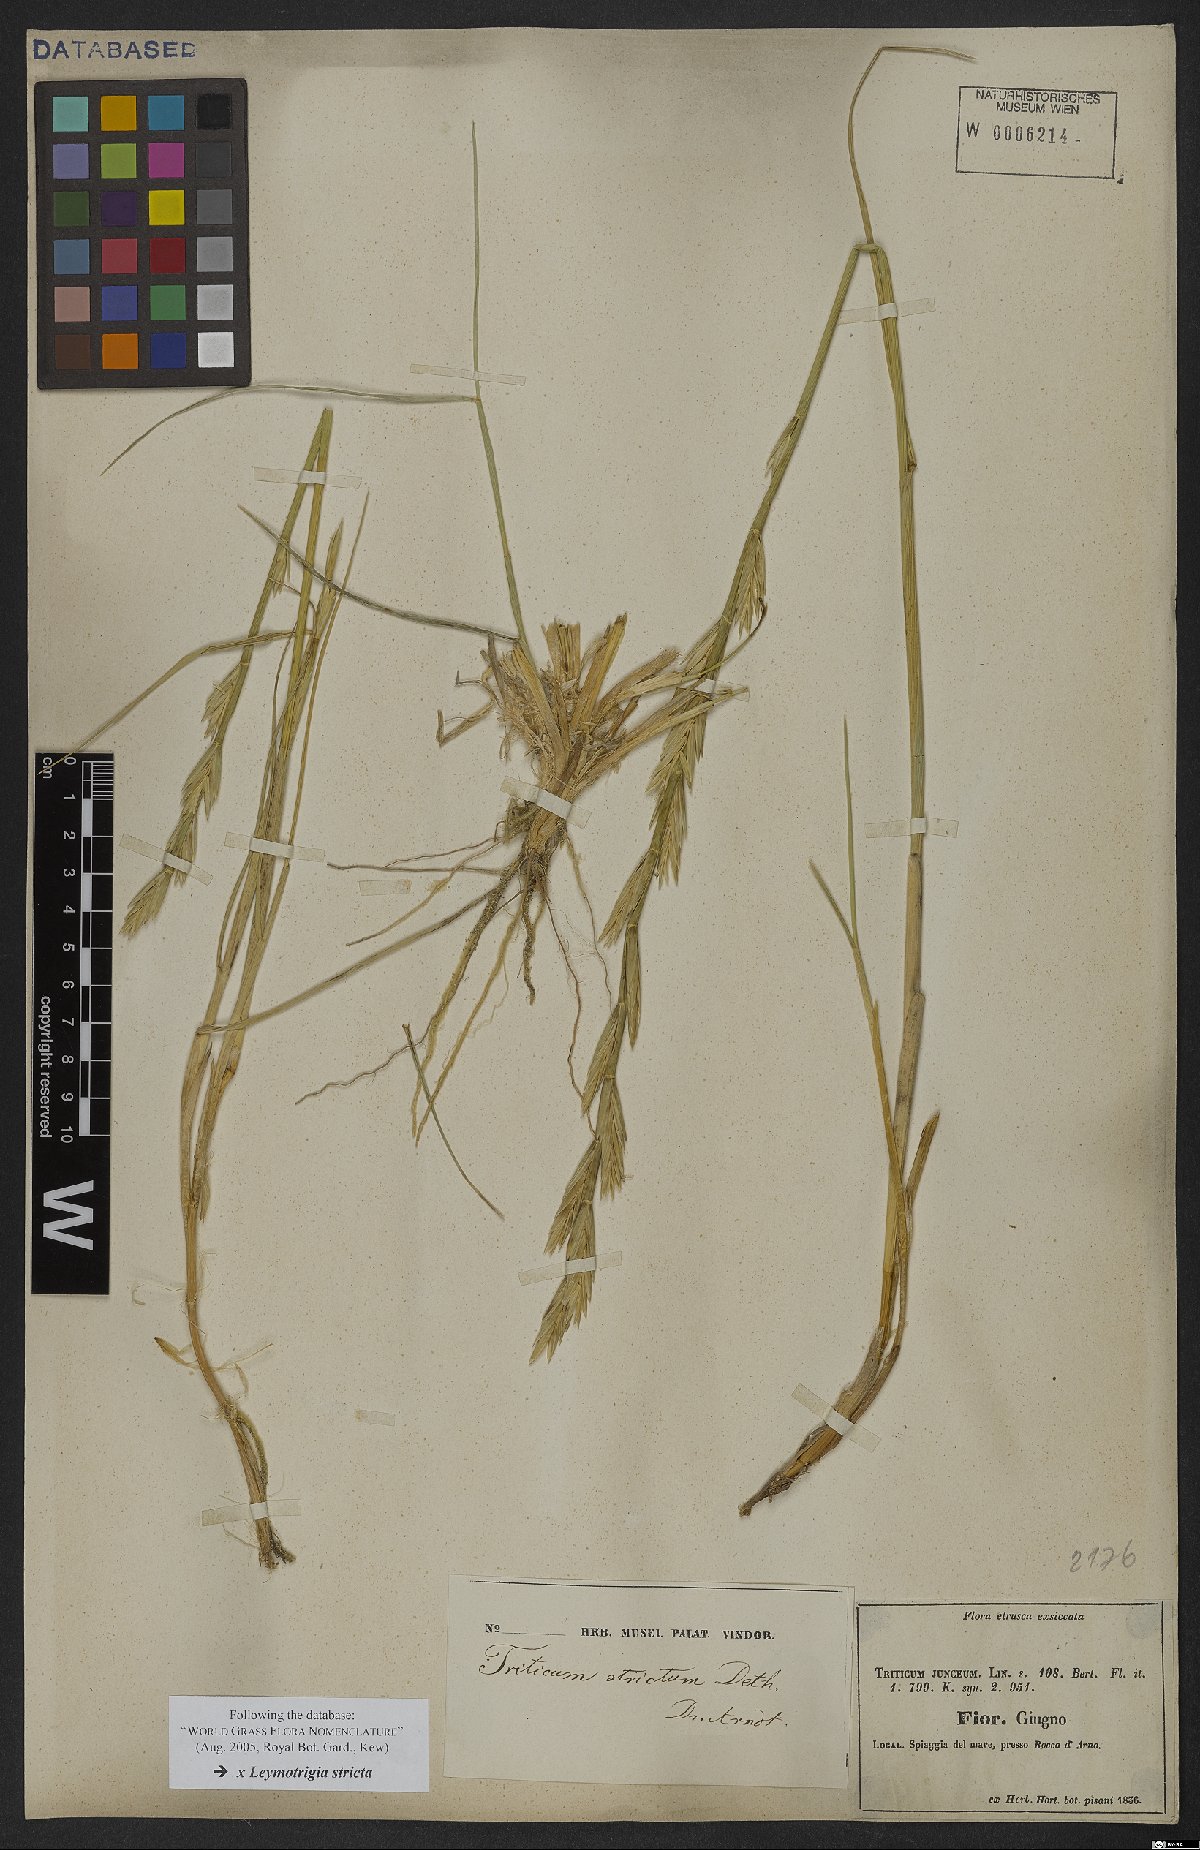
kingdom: Plantae
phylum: Tracheophyta
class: Liliopsida
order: Poales
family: Poaceae
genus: Elyleymus
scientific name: Elyleymus strictus
